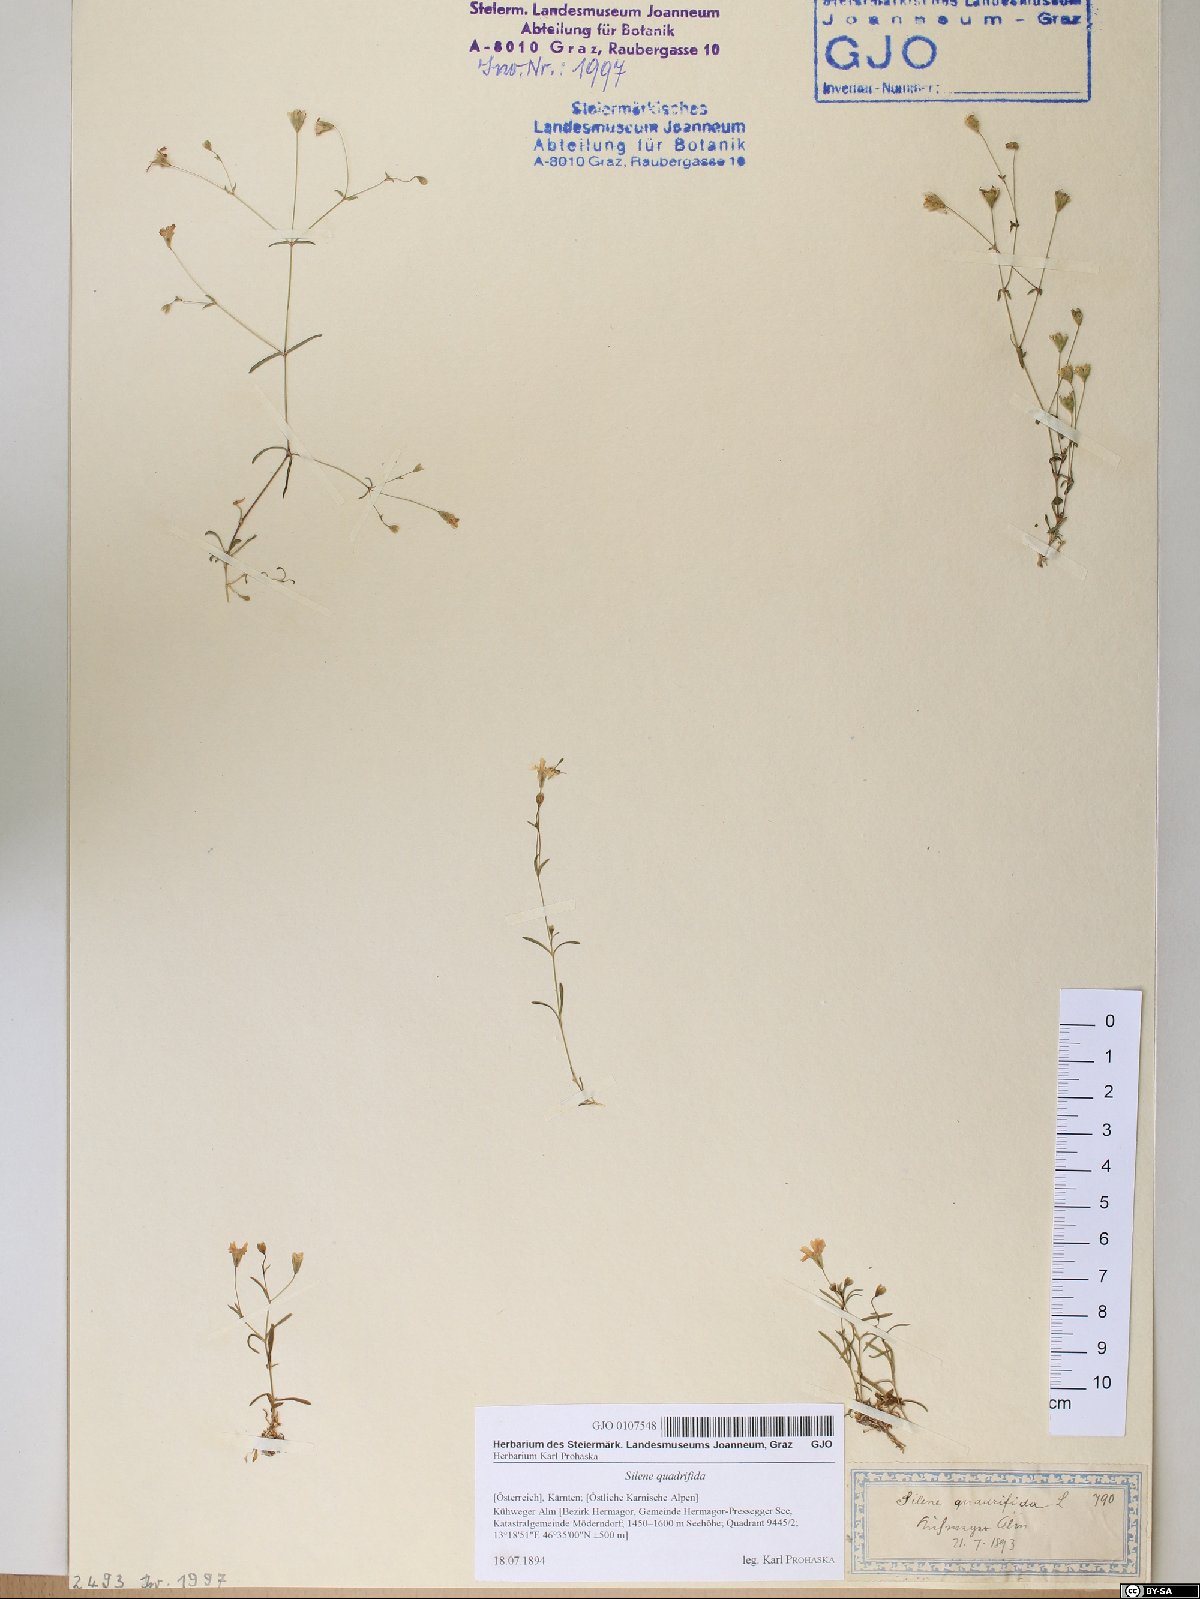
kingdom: Plantae
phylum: Tracheophyta
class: Magnoliopsida
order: Caryophyllales
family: Caryophyllaceae
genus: Heliosperma
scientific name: Heliosperma alpestre
